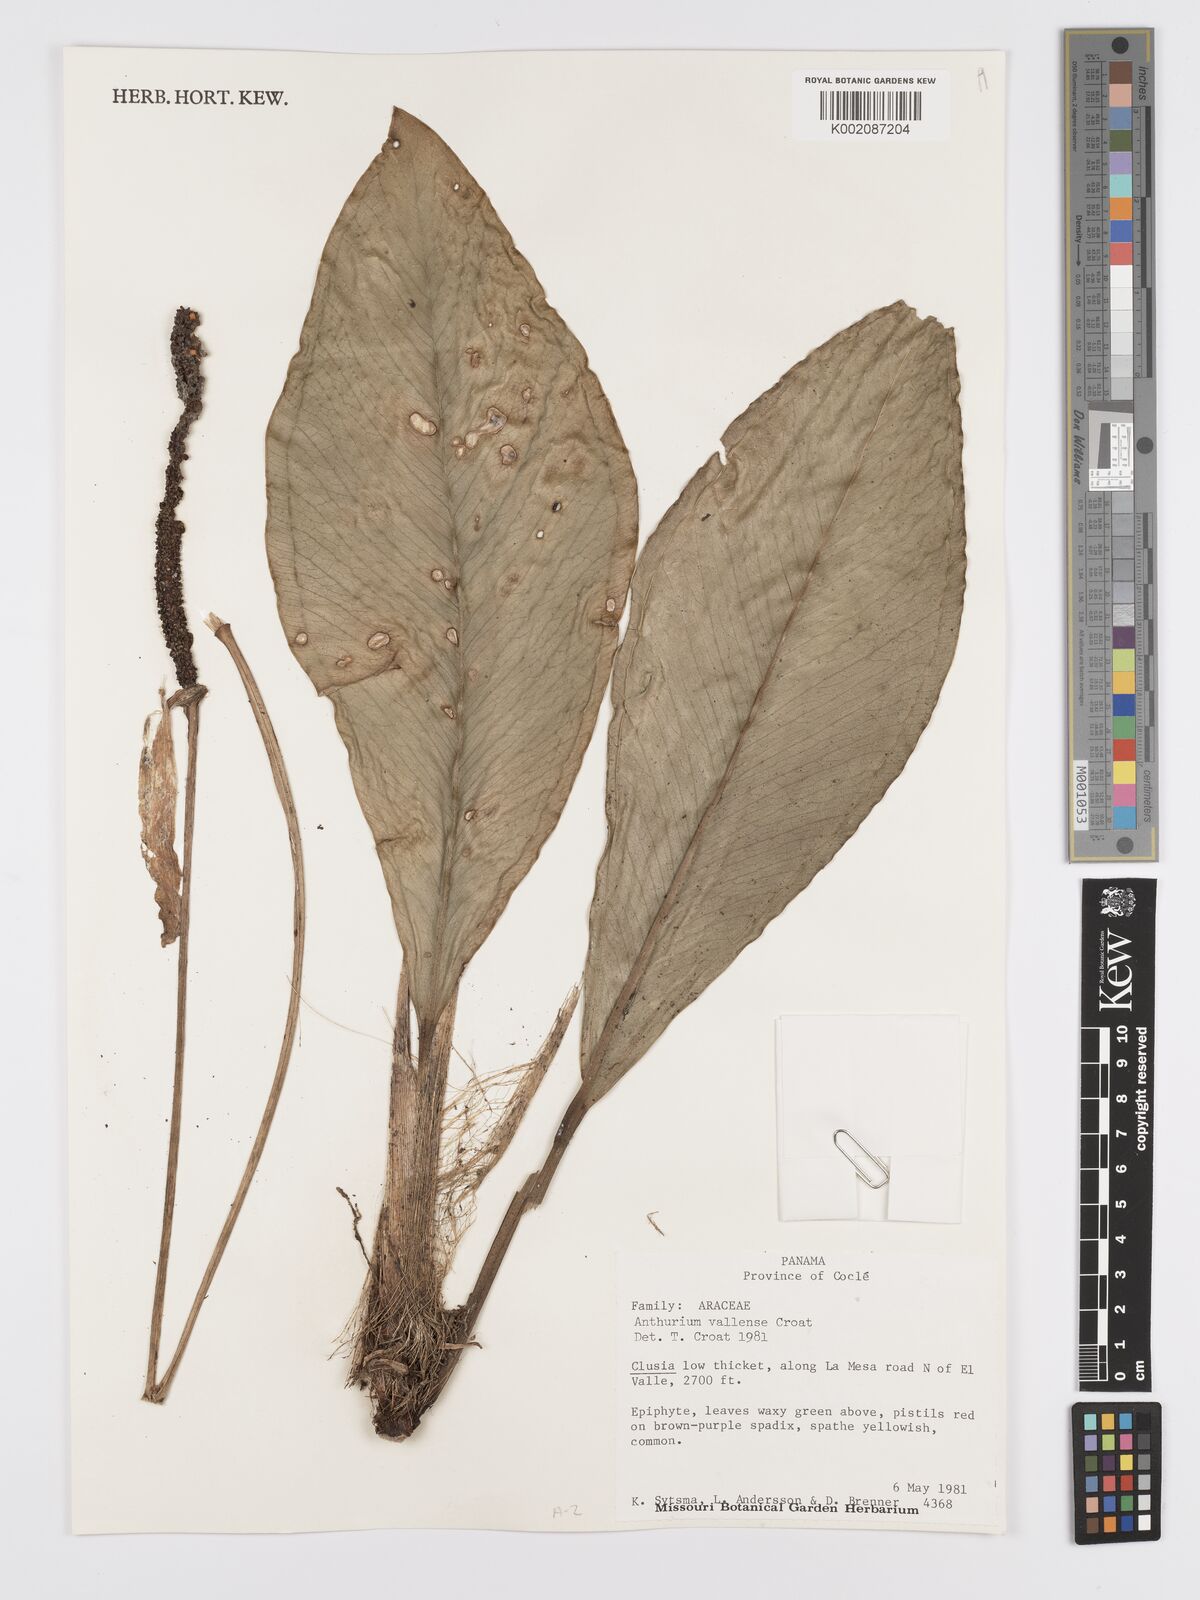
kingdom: Plantae
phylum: Tracheophyta
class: Liliopsida
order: Alismatales
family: Araceae
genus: Anthurium
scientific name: Anthurium vallense
